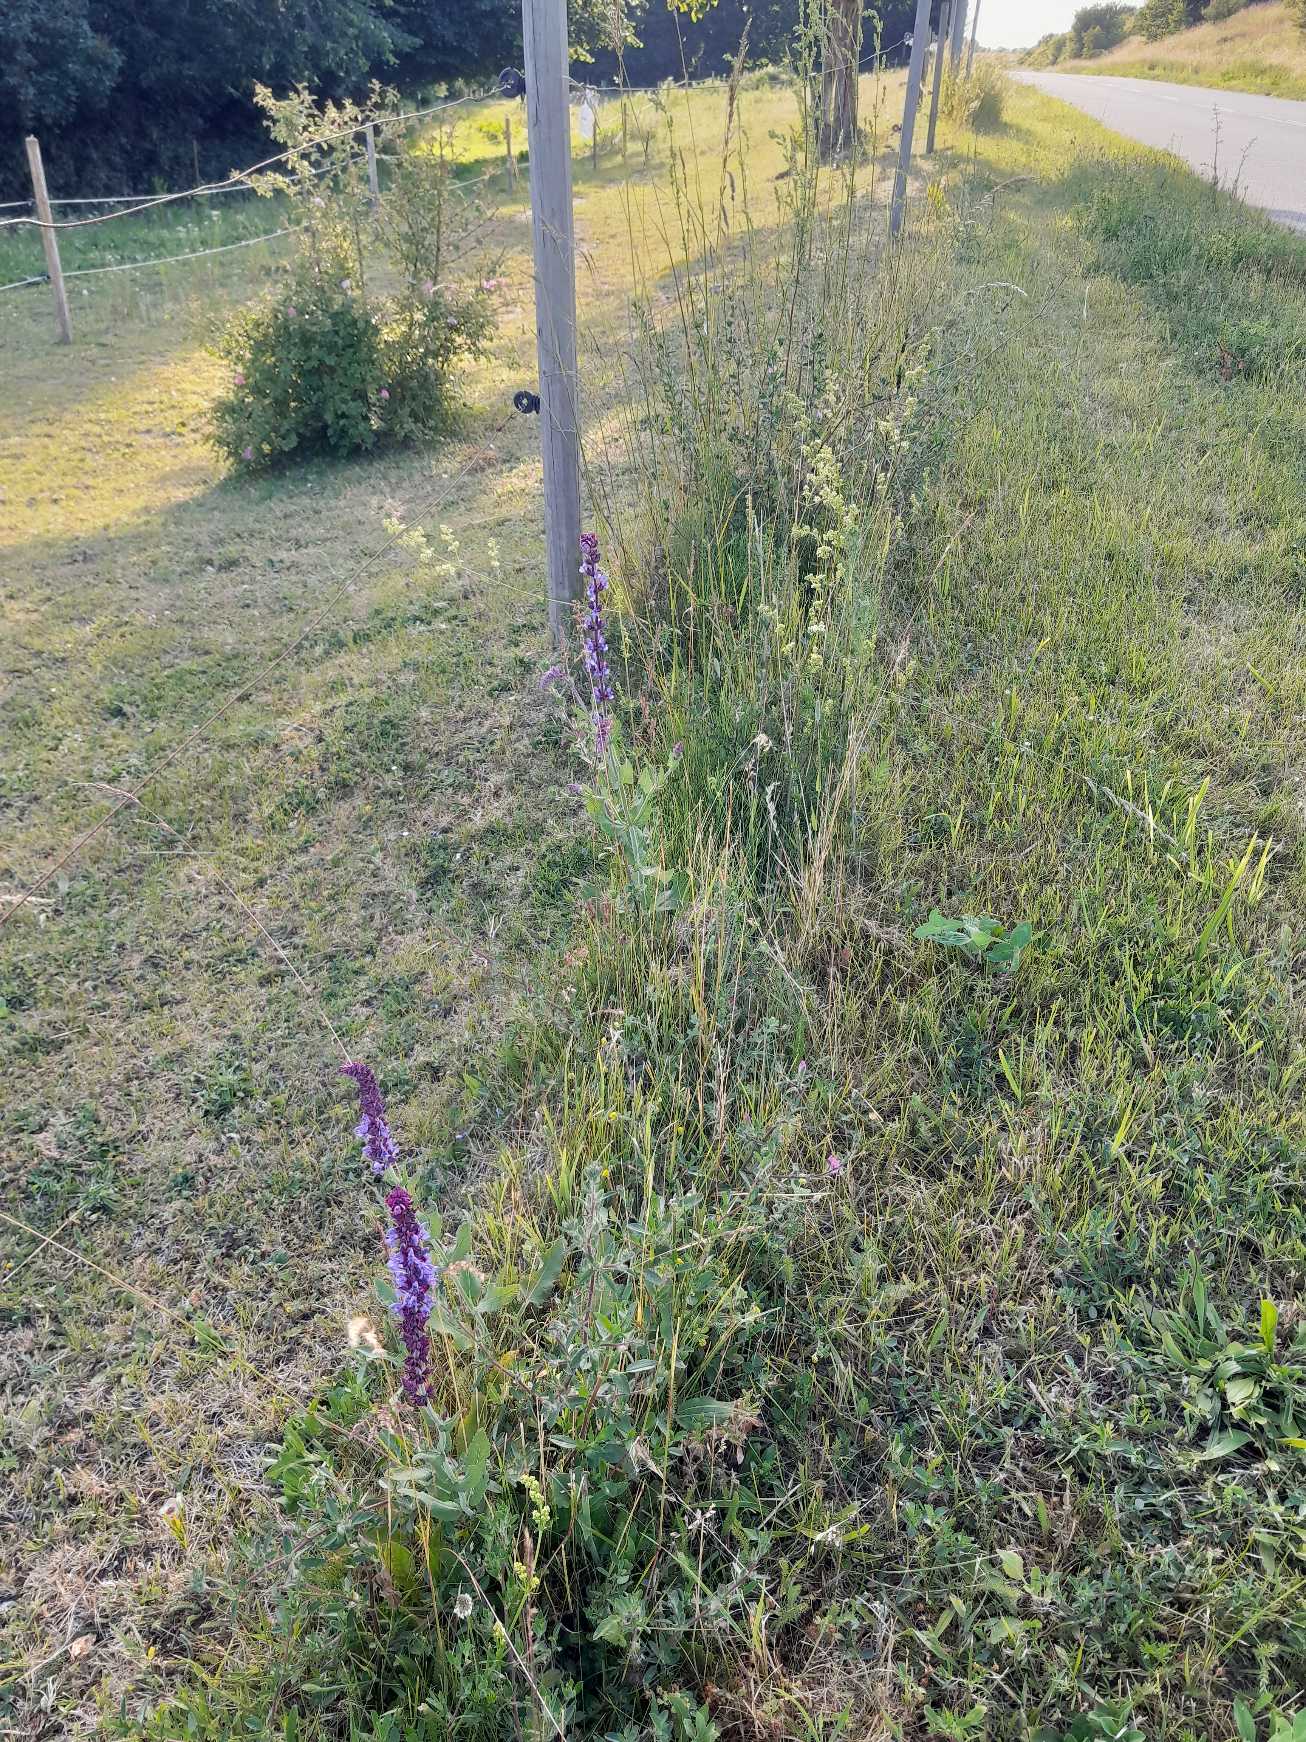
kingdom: Plantae
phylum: Tracheophyta
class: Magnoliopsida
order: Lamiales
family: Lamiaceae
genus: Salvia
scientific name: Salvia nemorosa
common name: Småblomstret salvie
